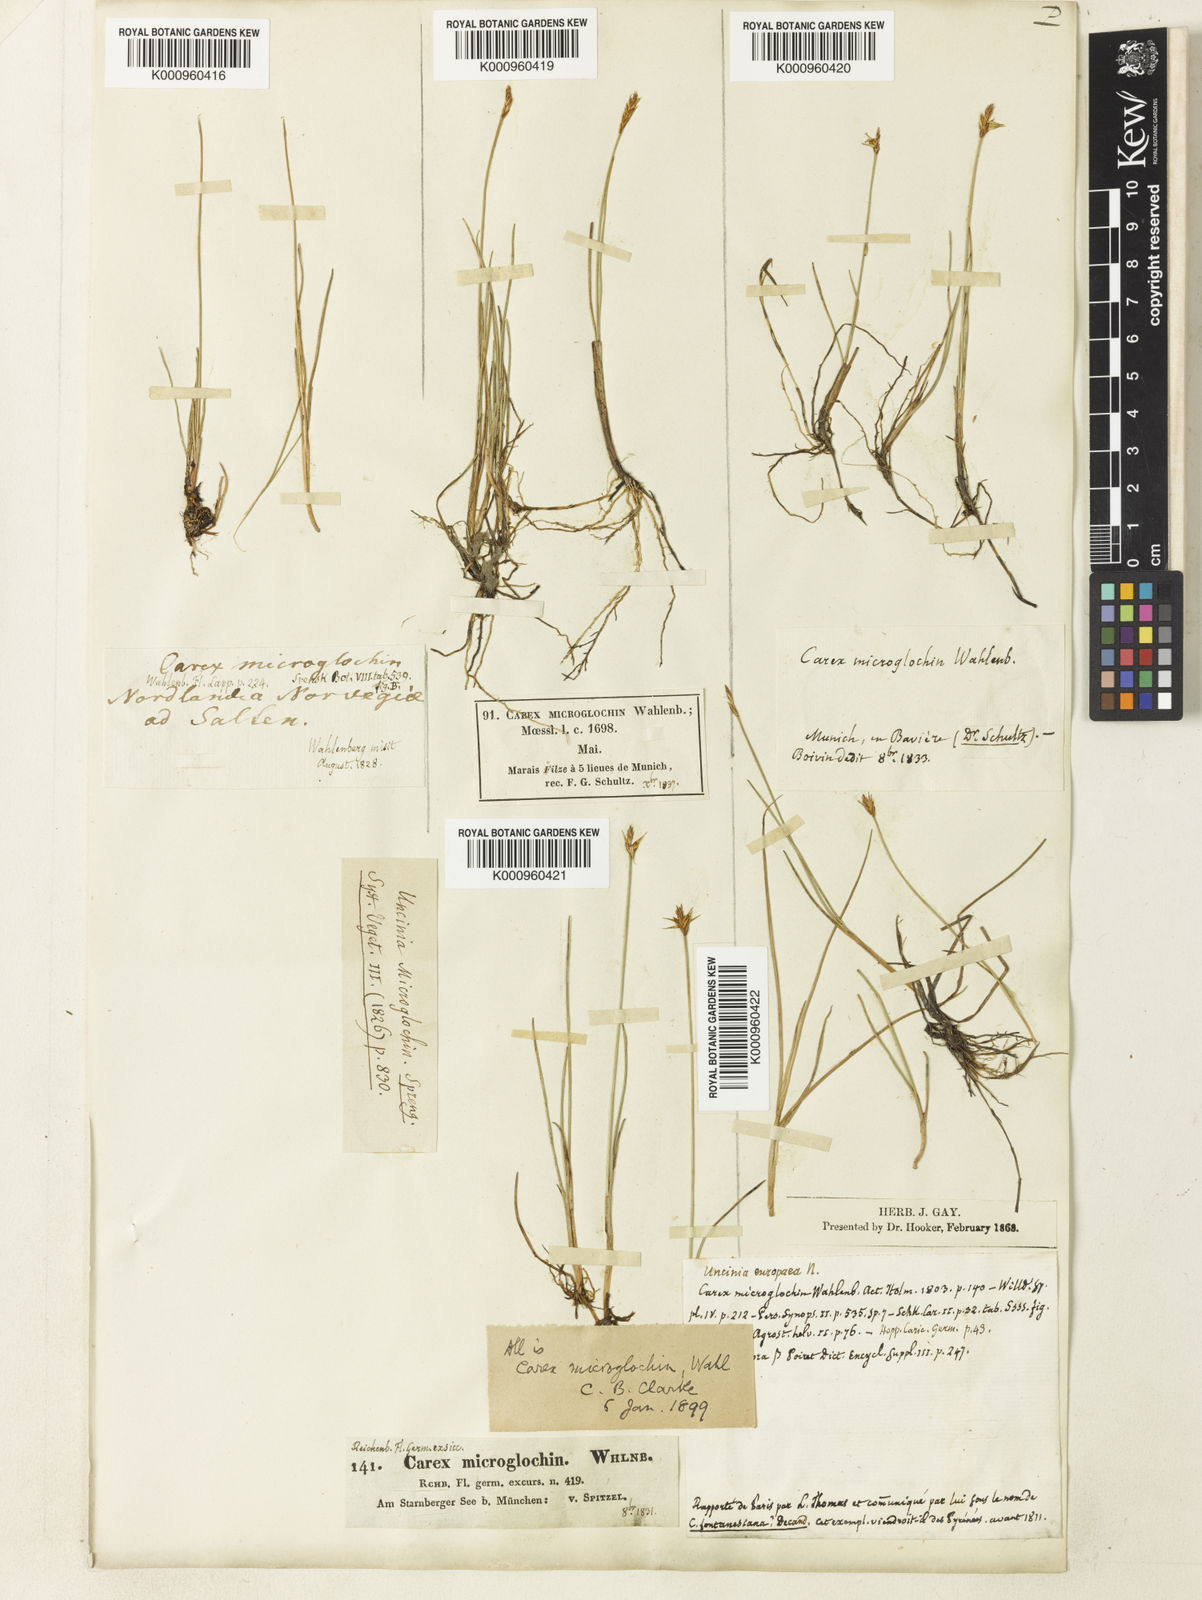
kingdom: Plantae
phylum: Tracheophyta
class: Liliopsida
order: Poales
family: Cyperaceae
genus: Carex
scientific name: Carex microglochin
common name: Bristle sedge
